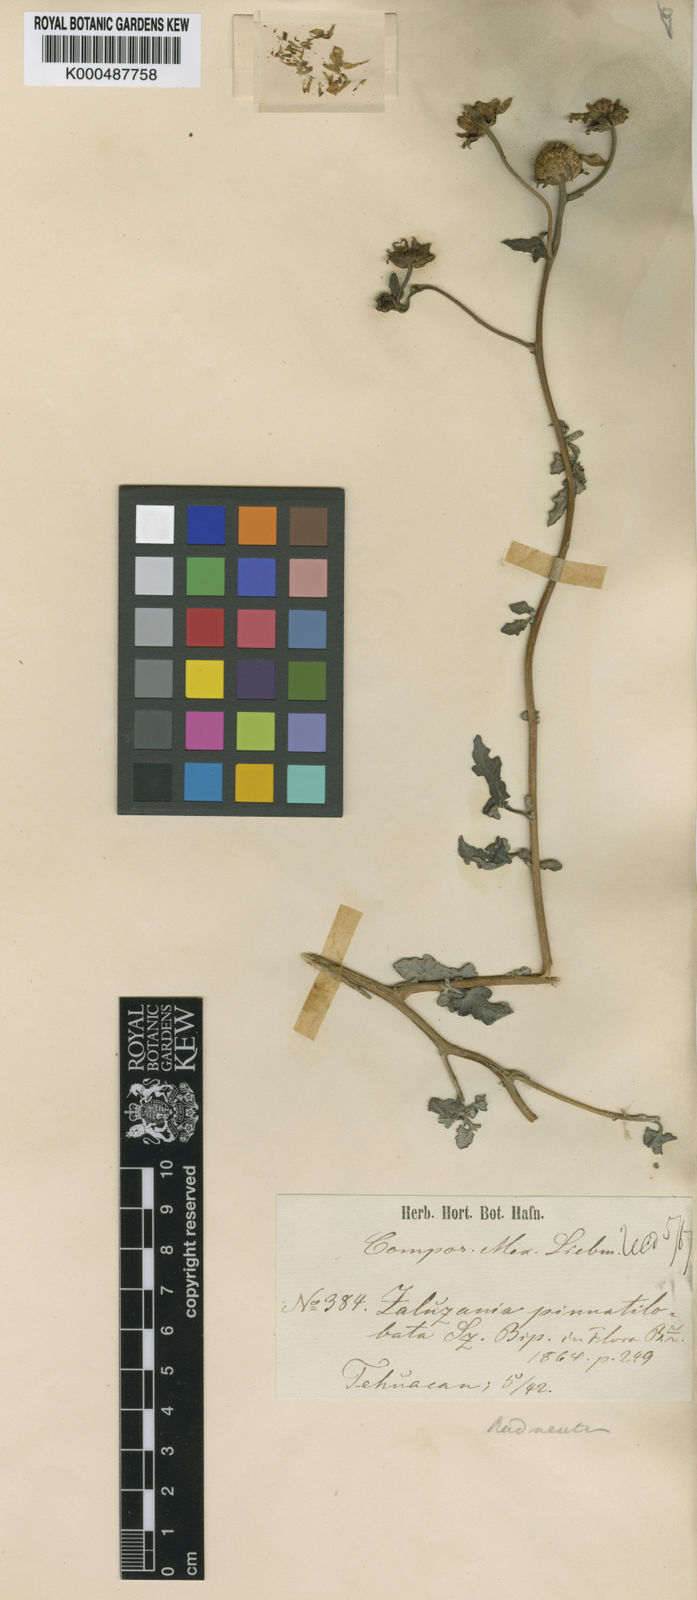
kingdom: Plantae
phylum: Tracheophyta
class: Magnoliopsida
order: Asterales
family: Asteraceae
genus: Sidneya
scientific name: Sidneya pinnatilobata
